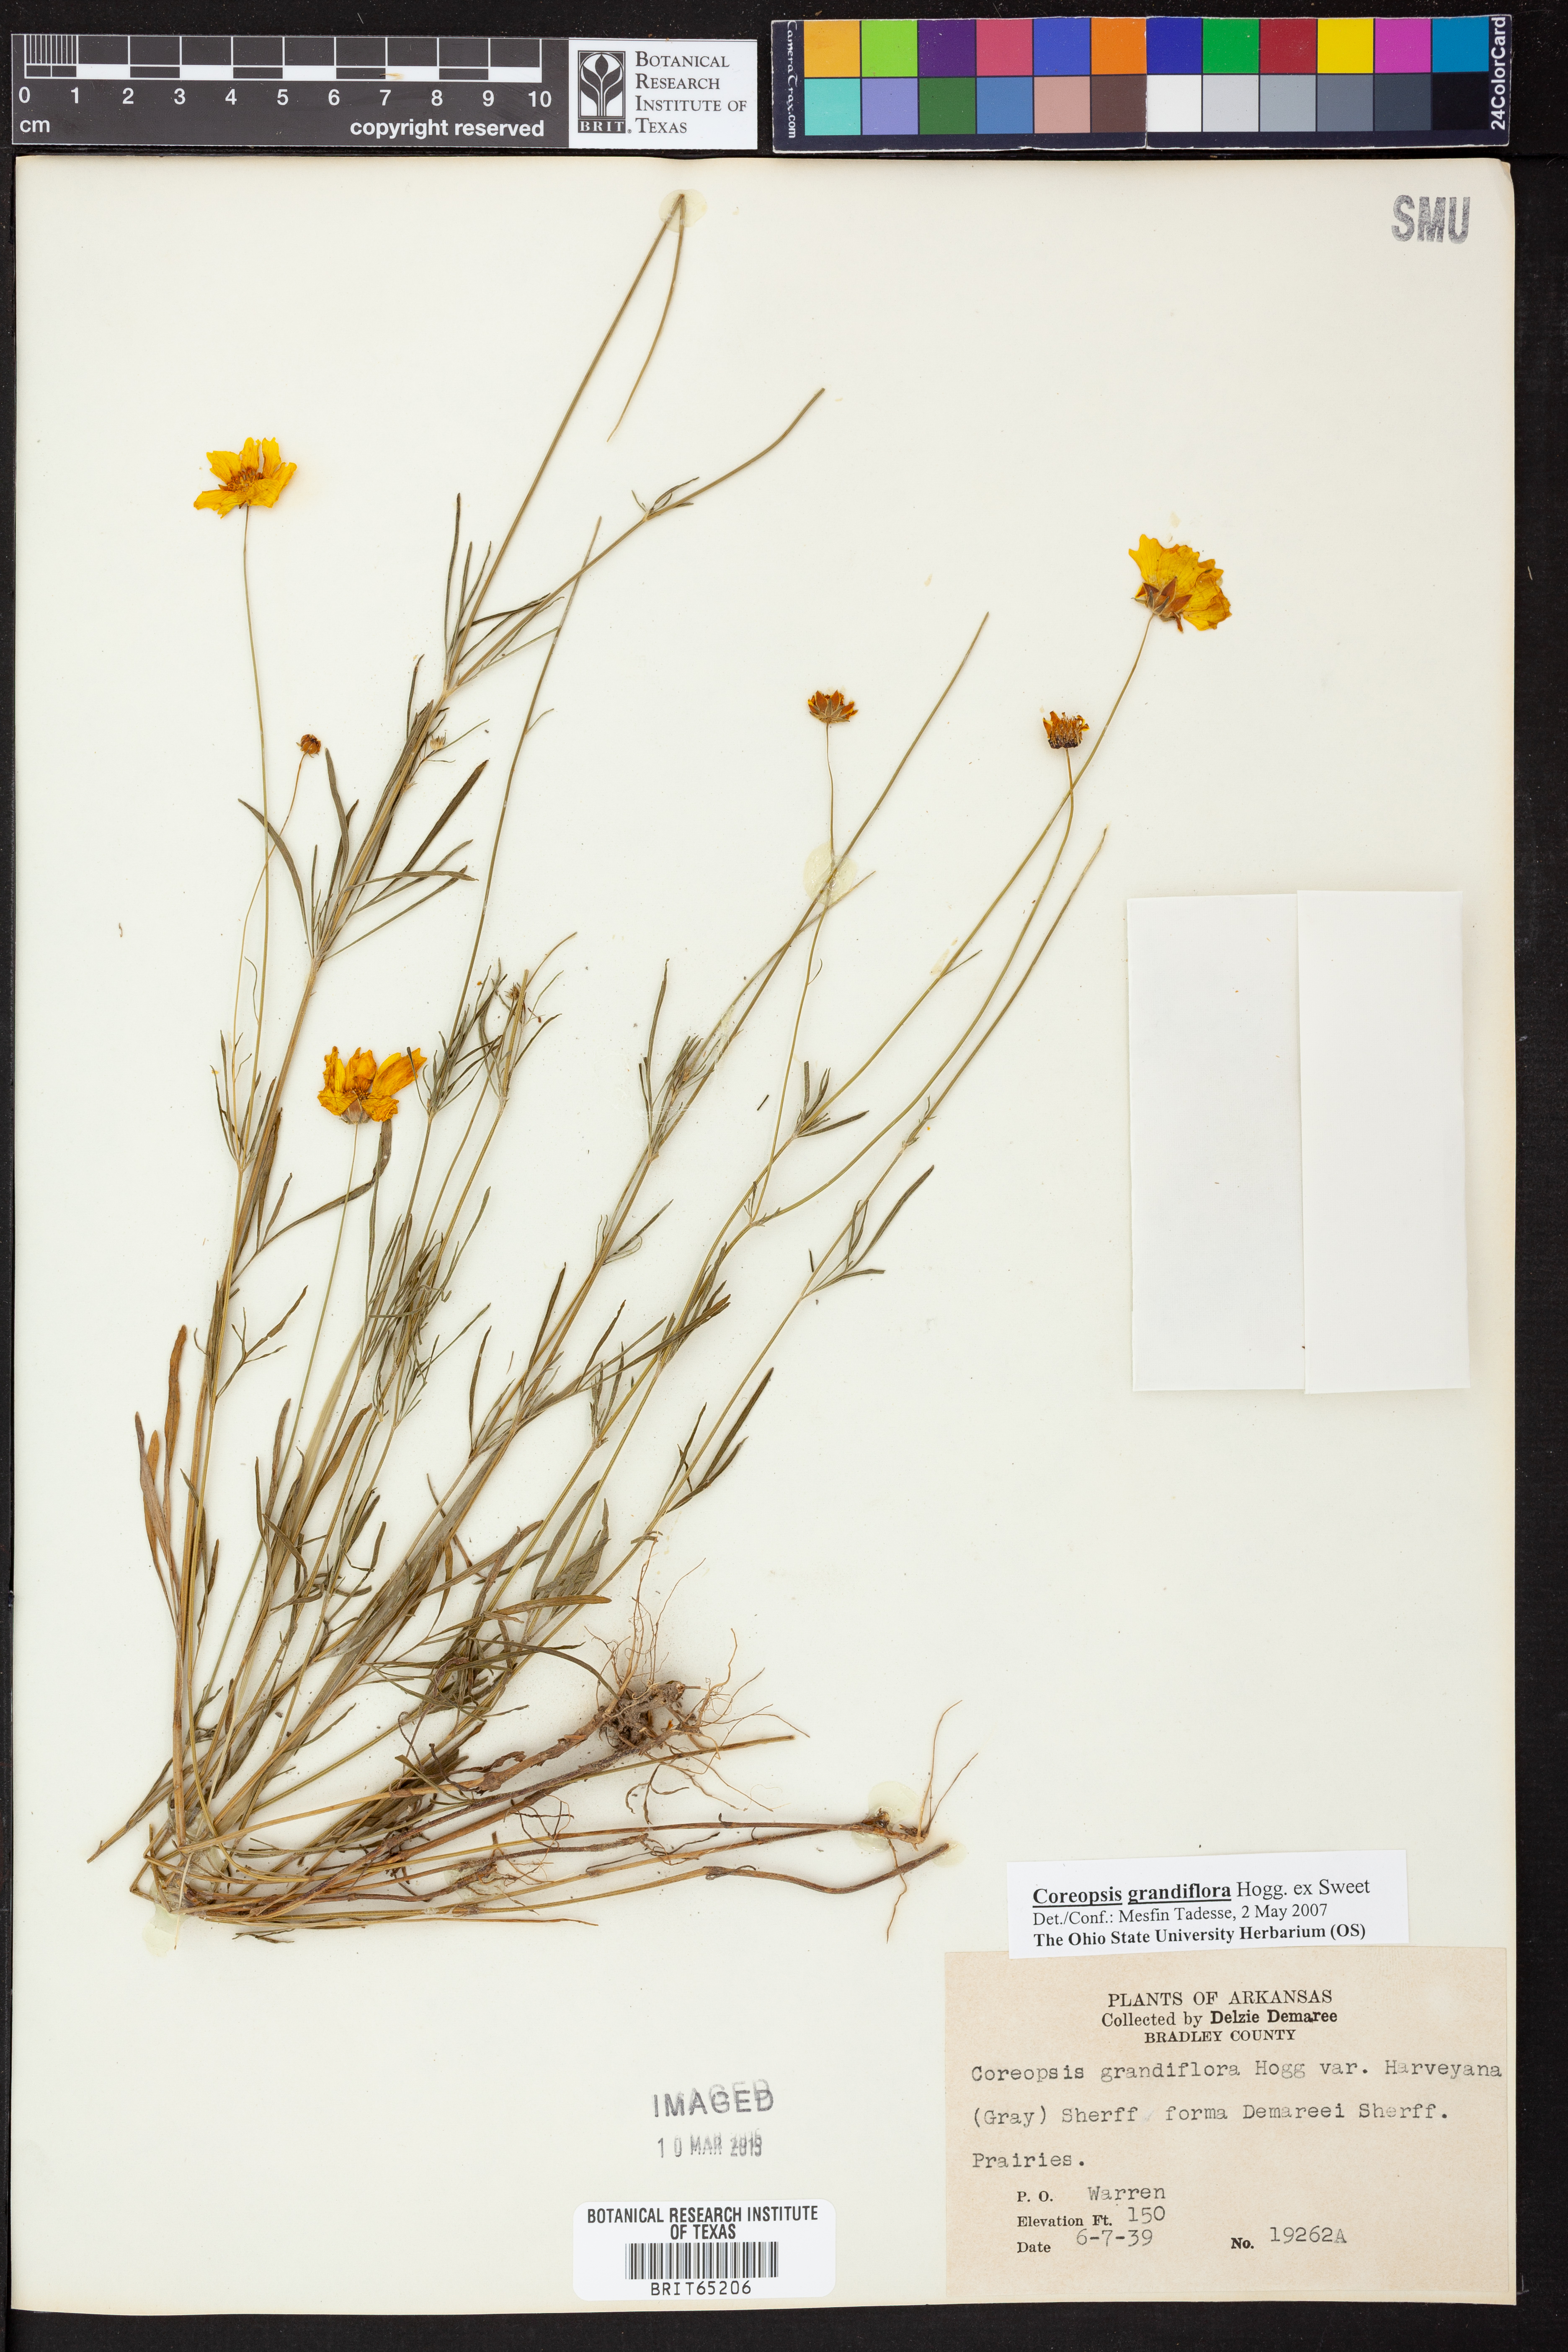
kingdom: Plantae
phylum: Tracheophyta
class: Magnoliopsida
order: Asterales
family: Asteraceae
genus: Coreopsis
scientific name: Coreopsis grandiflora
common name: Large-flowered tickseed
